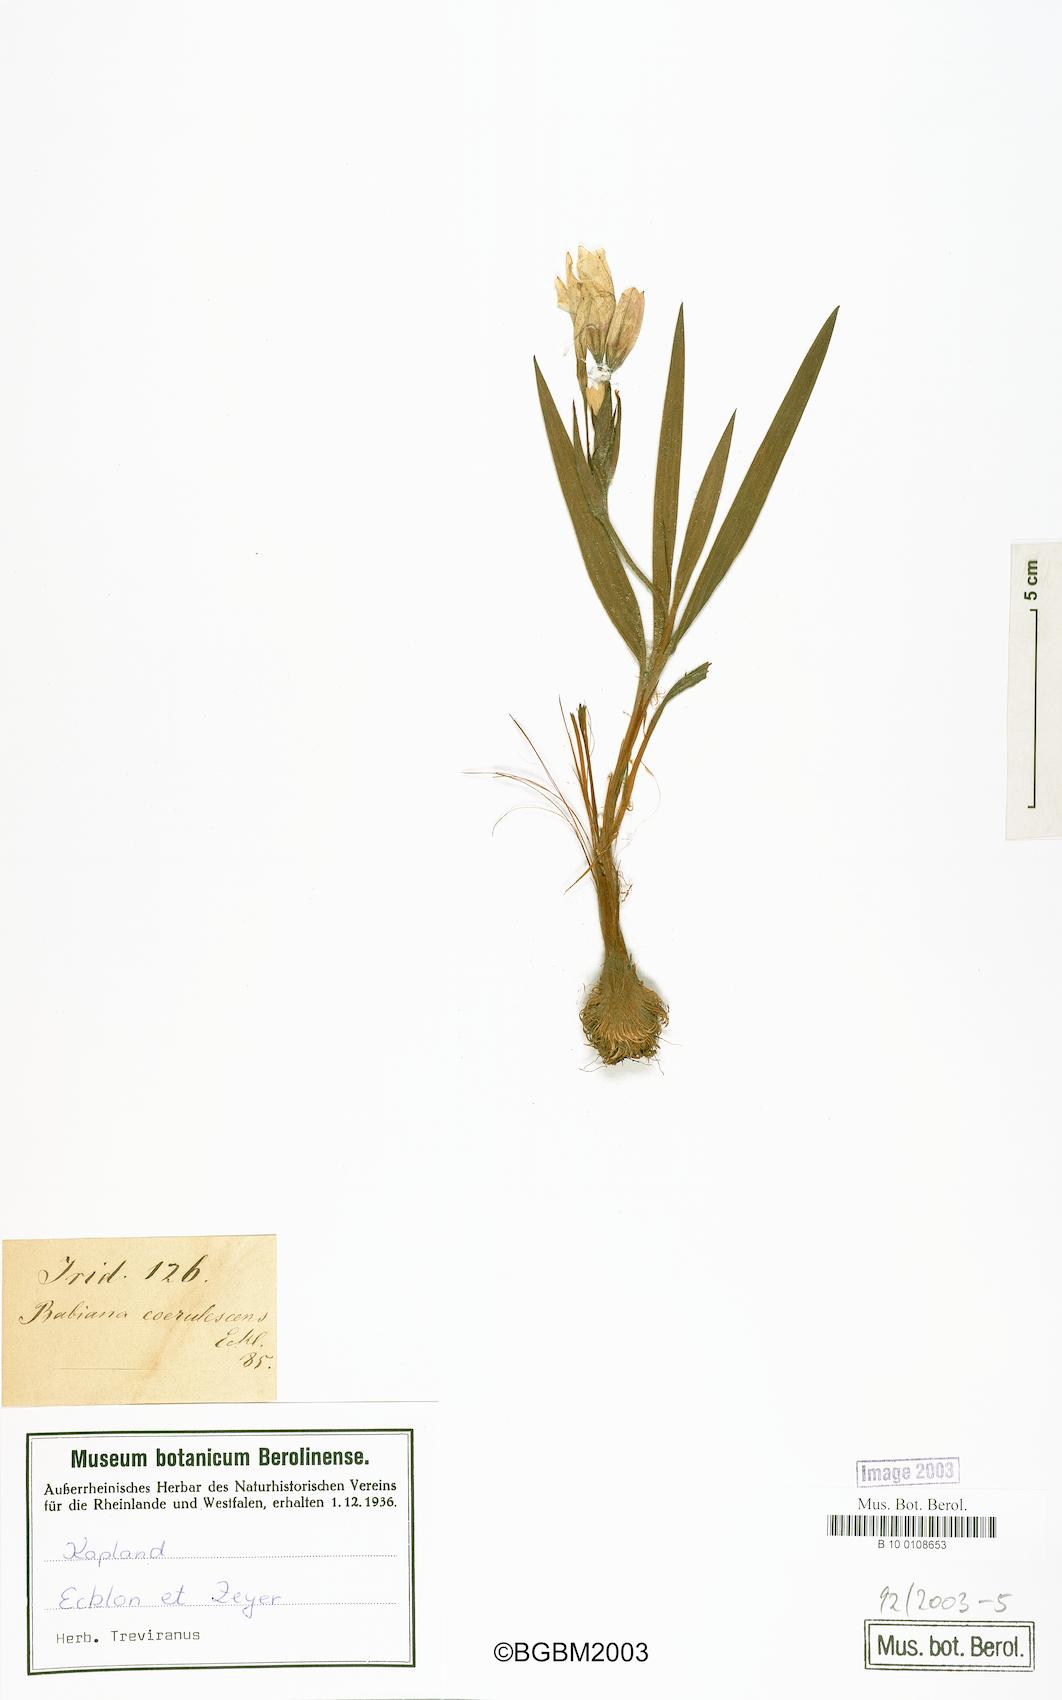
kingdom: Plantae
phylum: Tracheophyta
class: Liliopsida
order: Asparagales
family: Iridaceae
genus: Babiana
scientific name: Babiana patersoniae
